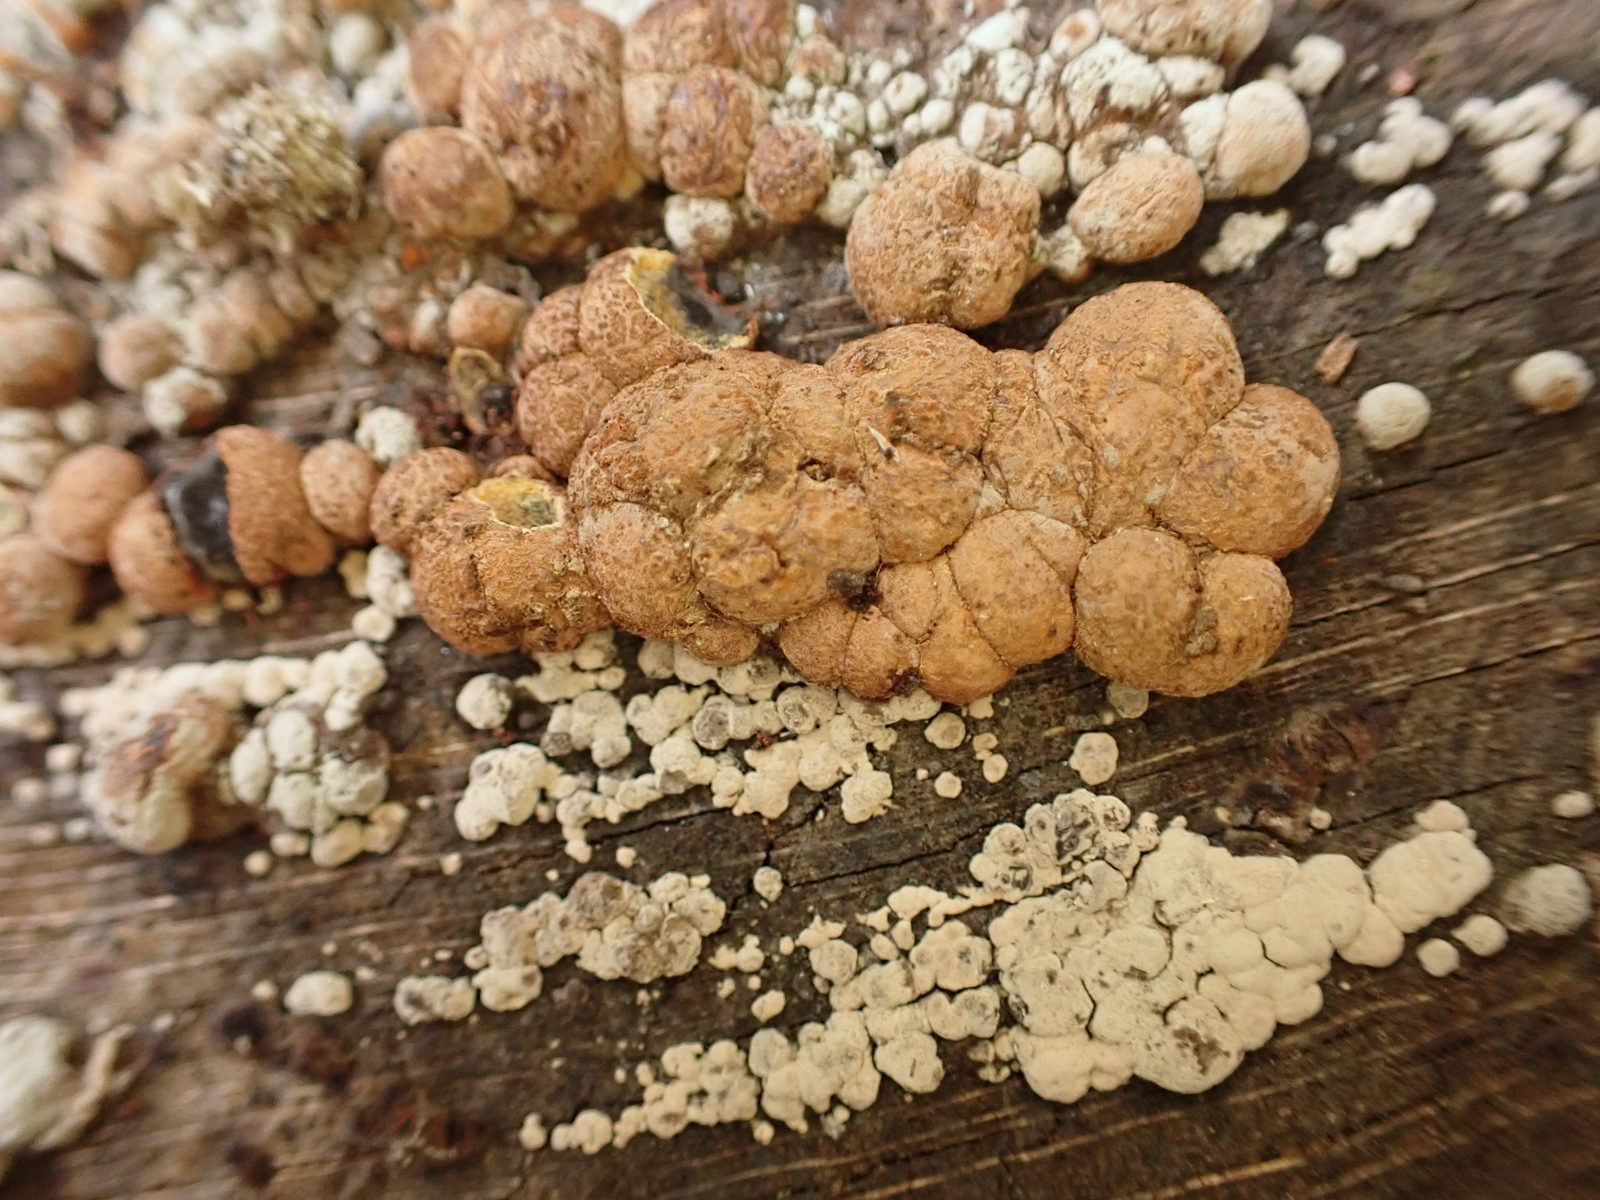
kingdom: Fungi
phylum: Ascomycota
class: Sordariomycetes
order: Xylariales
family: Hypoxylaceae
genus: Hypoxylon
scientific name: Hypoxylon fragiforme
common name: kuljordbær
